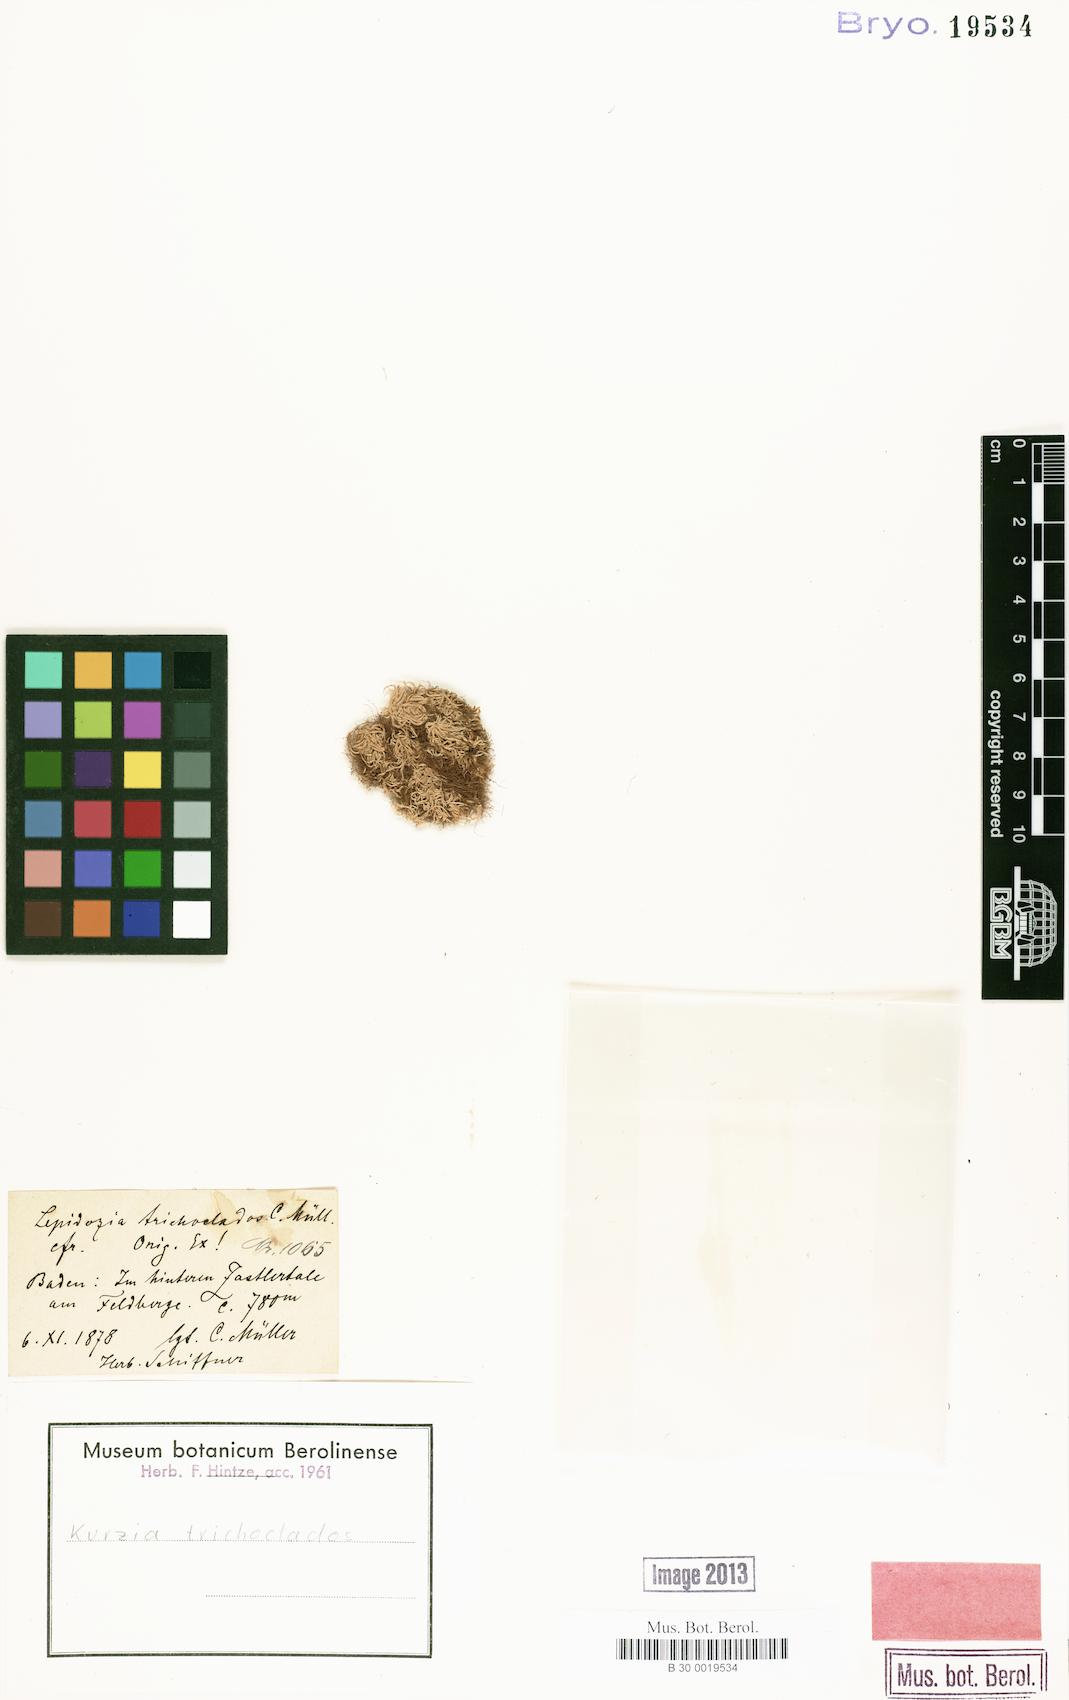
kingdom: Plantae
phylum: Marchantiophyta
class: Jungermanniopsida
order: Jungermanniales
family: Lepidoziaceae
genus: Kurzia
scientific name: Kurzia trichoclados
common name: Heath fingerwort
